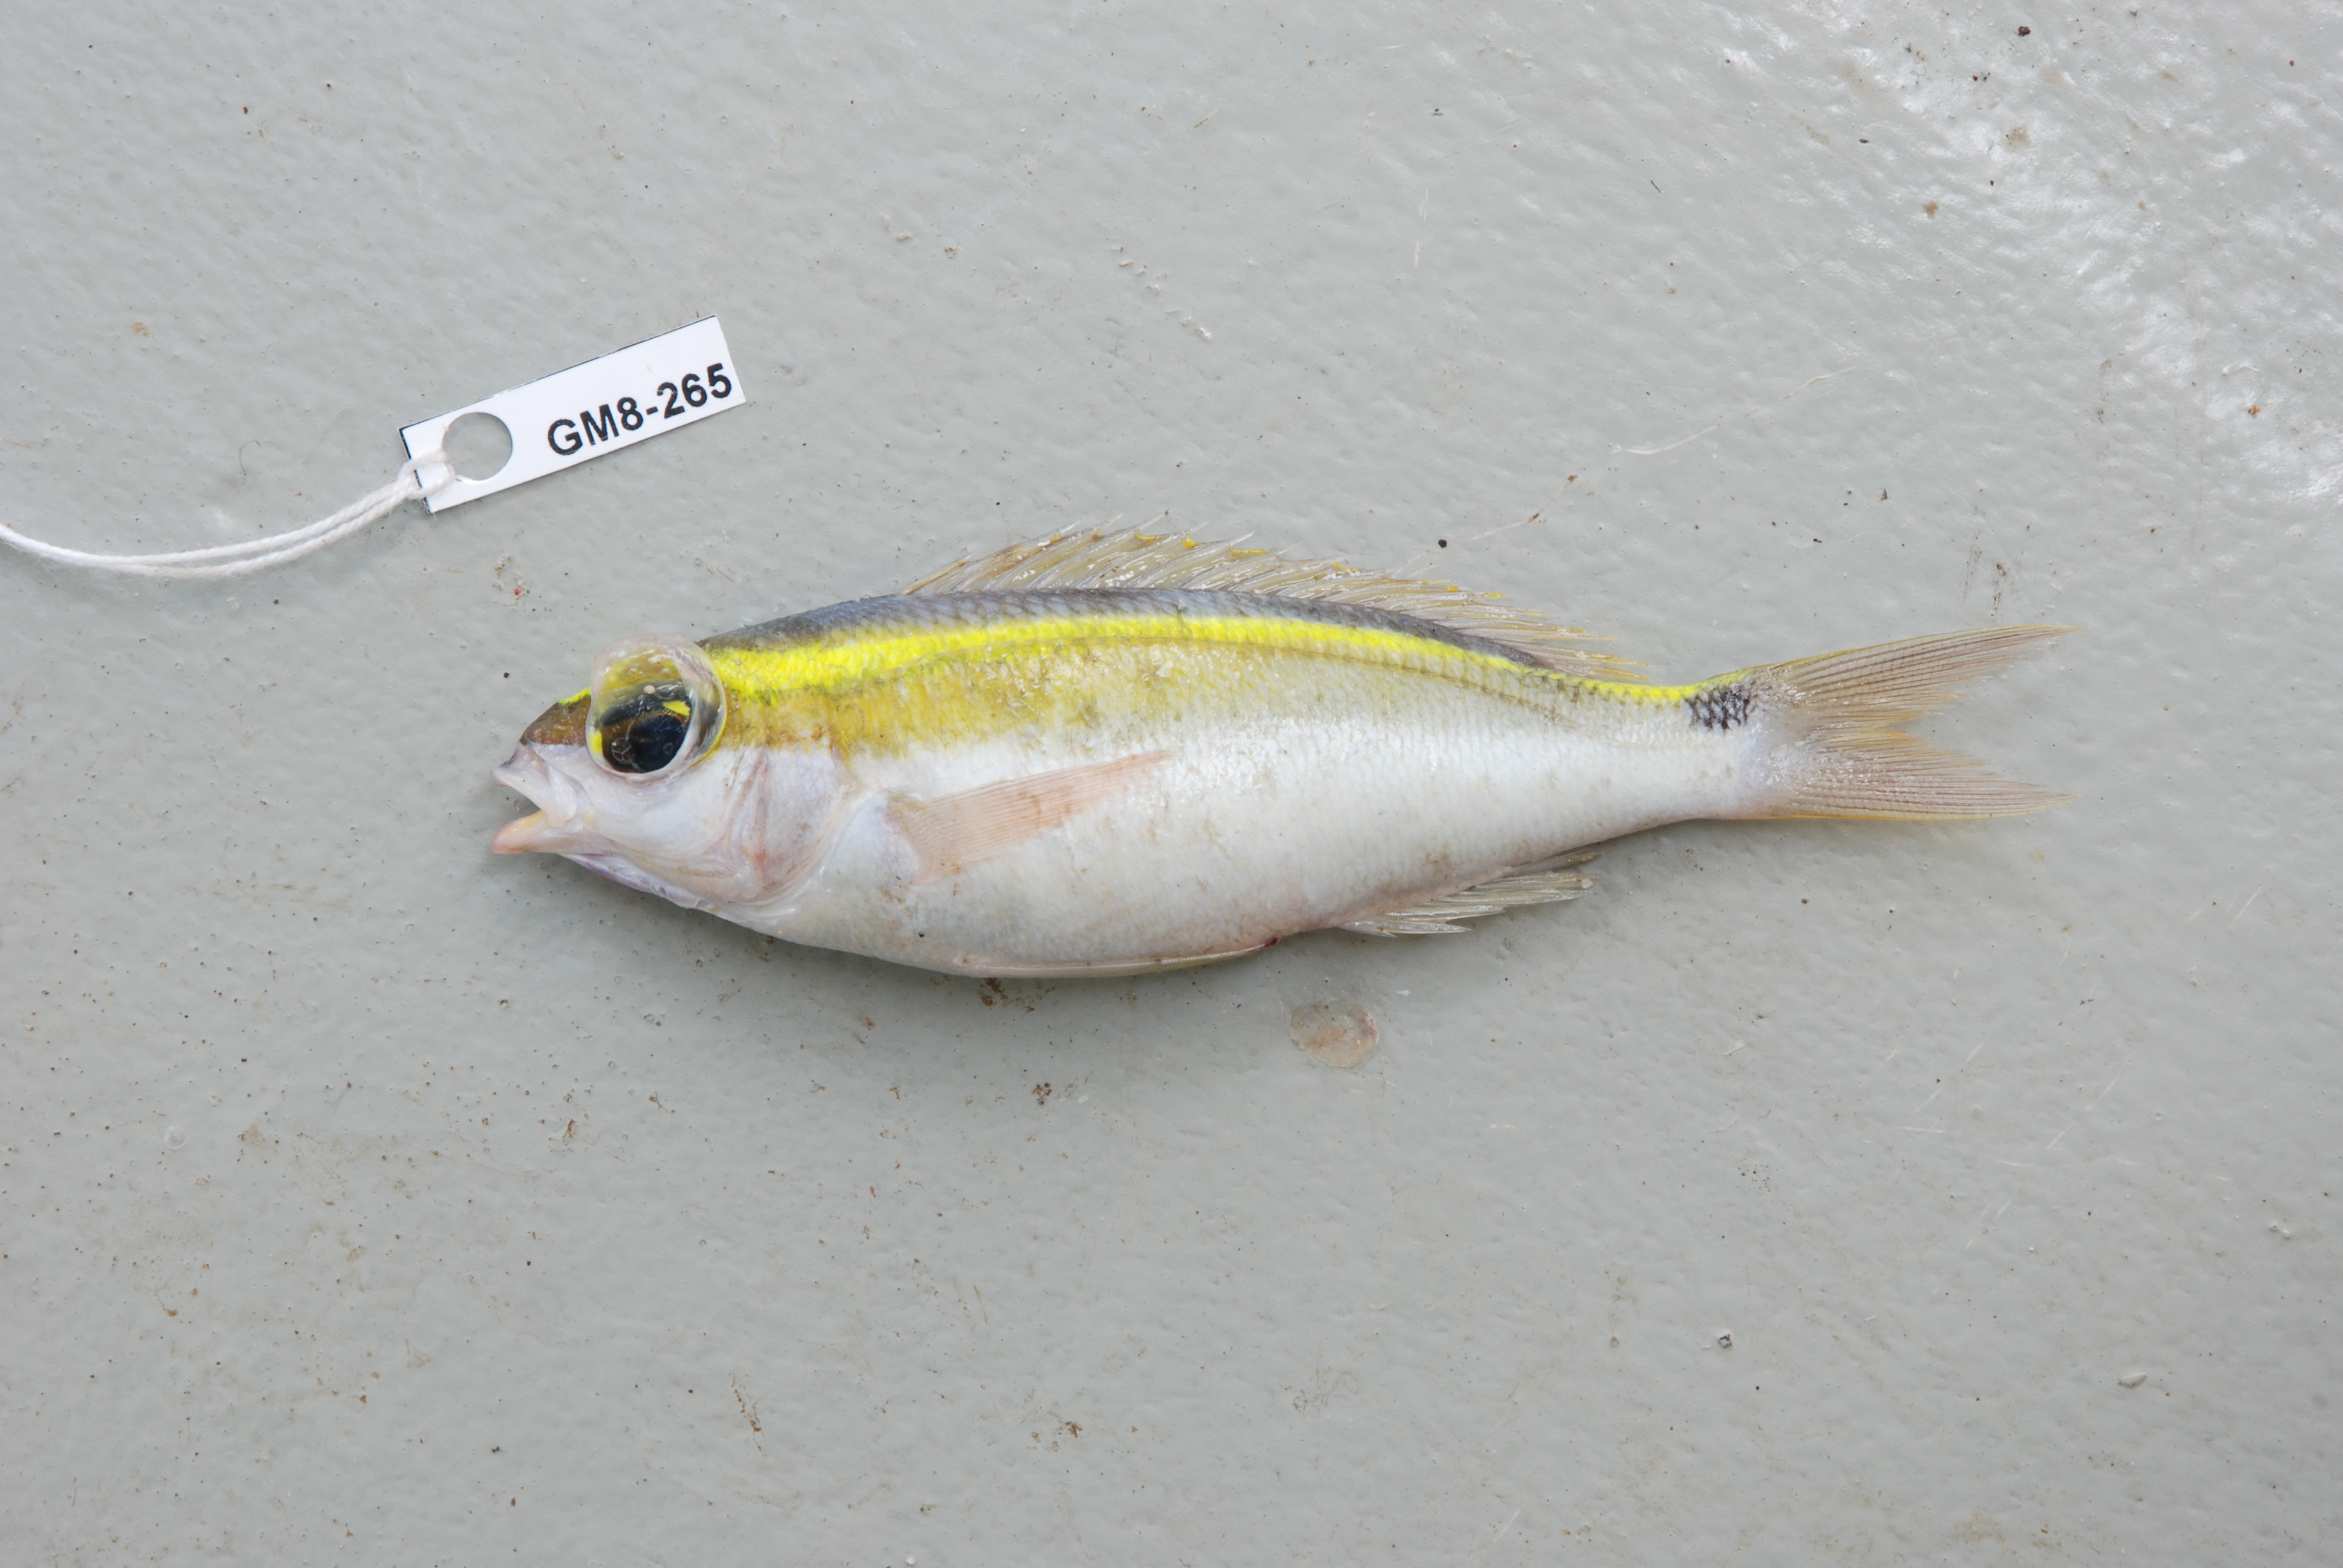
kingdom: Animalia
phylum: Chordata
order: Perciformes
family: Nemipteridae
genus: Scolopsis
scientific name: Scolopsis frenata
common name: Bridled monocle bream
